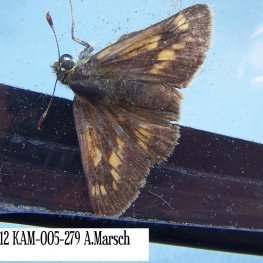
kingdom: Animalia
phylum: Arthropoda
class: Insecta
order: Lepidoptera
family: Hesperiidae
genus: Polites
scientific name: Polites coras
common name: Peck's Skipper
